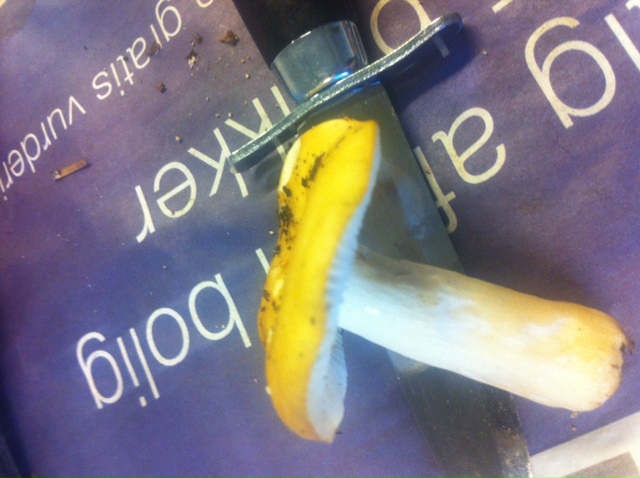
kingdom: Fungi
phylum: Basidiomycota
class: Agaricomycetes
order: Russulales
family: Russulaceae
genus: Russula
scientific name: Russula ochroleuca
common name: okkergul skørhat
